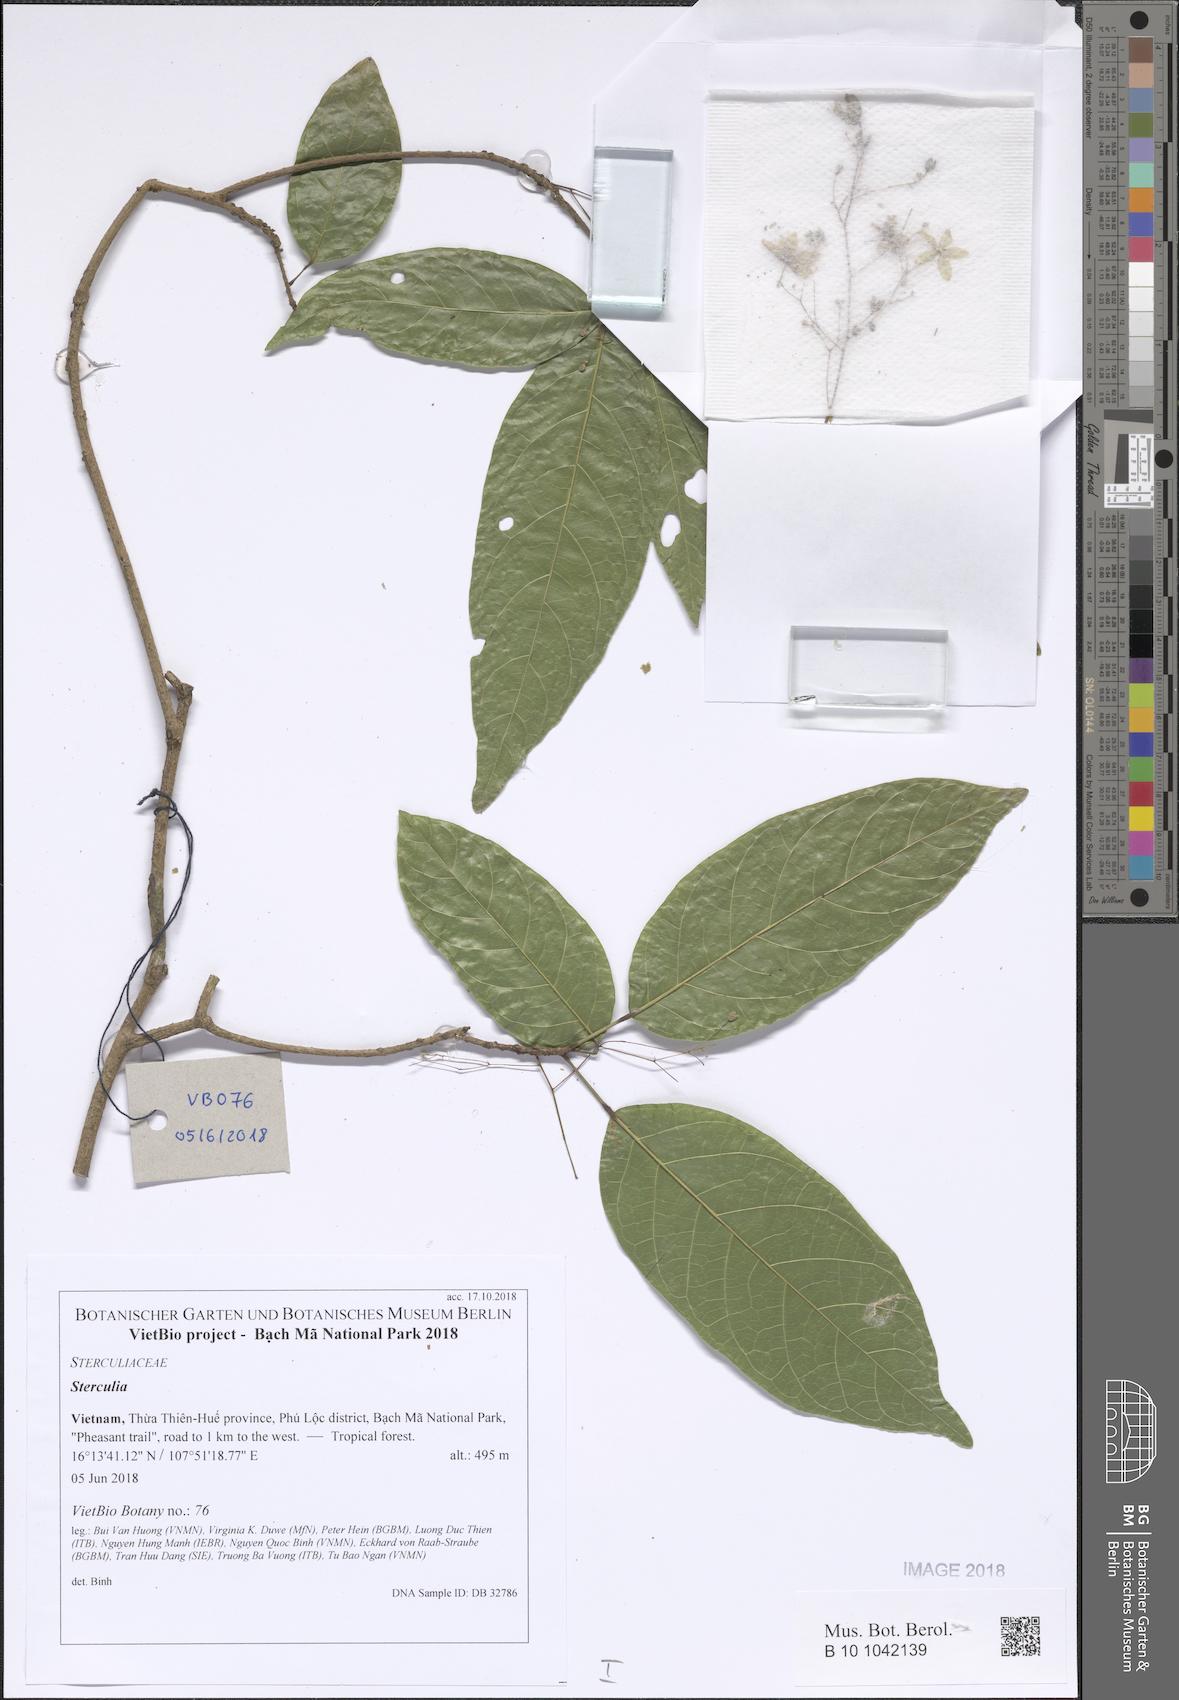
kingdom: Plantae
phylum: Tracheophyta
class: Magnoliopsida
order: Malvales
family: Malvaceae
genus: Sterculia
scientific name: Sterculia
